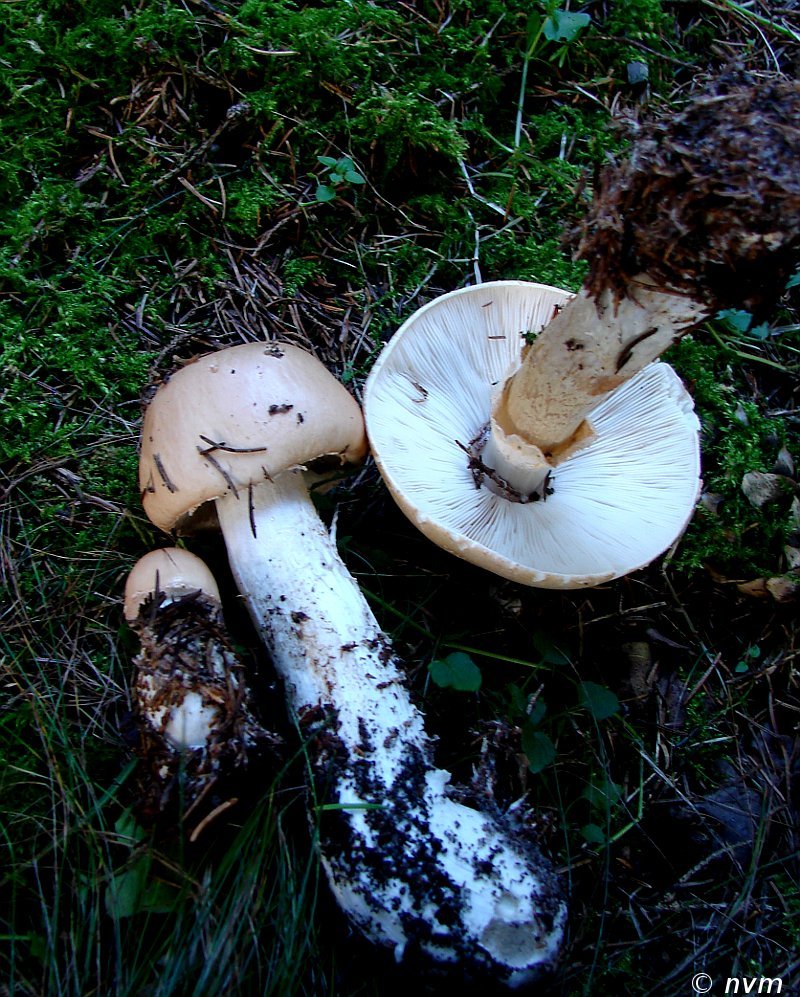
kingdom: Fungi
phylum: Basidiomycota
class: Agaricomycetes
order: Agaricales
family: Amanitaceae
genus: Limacellopsis
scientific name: Limacellopsis guttata
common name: tåre-snekkehat
